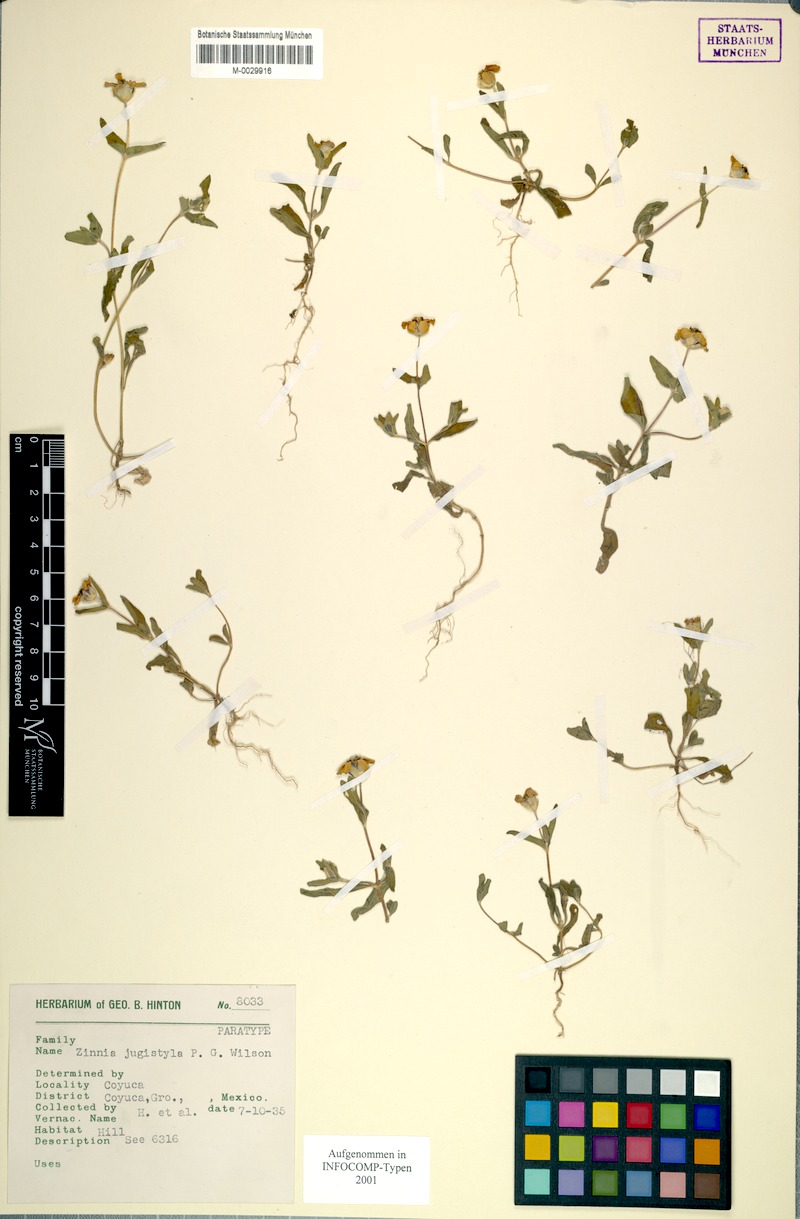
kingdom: Plantae
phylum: Tracheophyta
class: Magnoliopsida
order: Asterales
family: Asteraceae
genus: Zinnia
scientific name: Zinnia flavicoma
